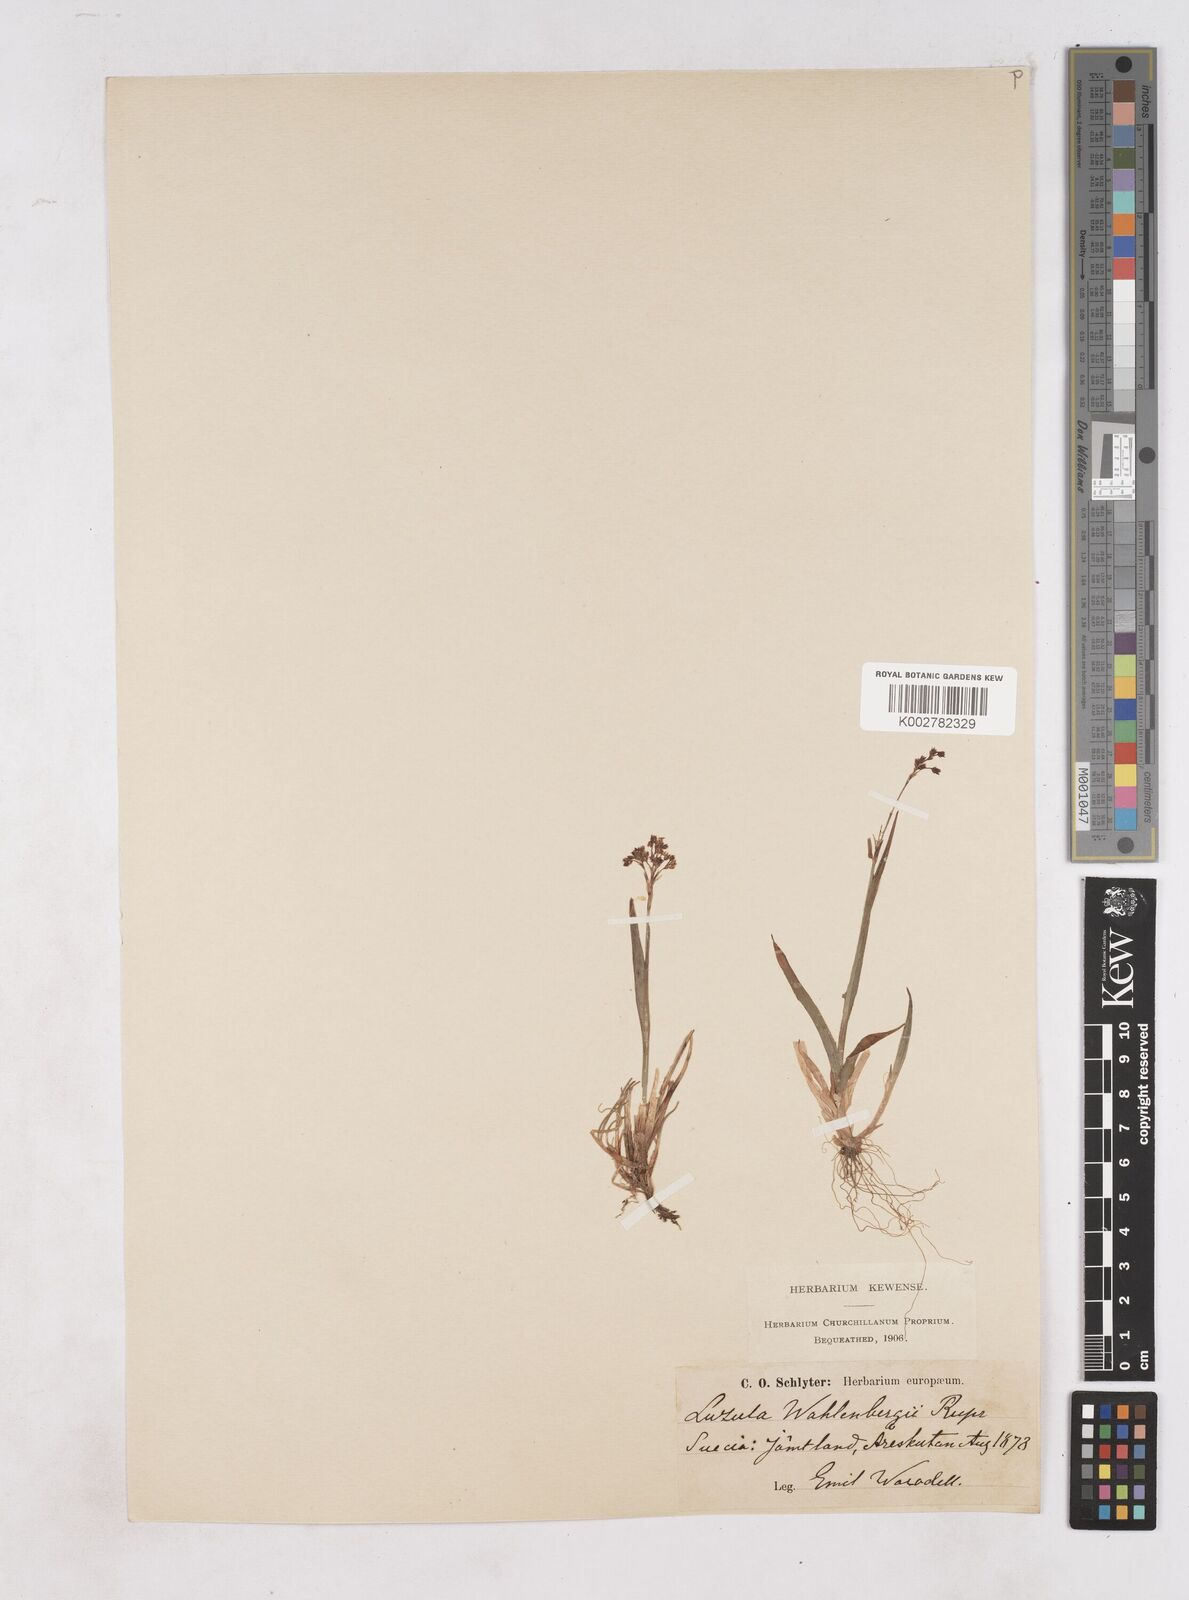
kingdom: Plantae
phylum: Tracheophyta
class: Liliopsida
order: Poales
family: Juncaceae
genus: Luzula
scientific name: Luzula alpinopilosa
